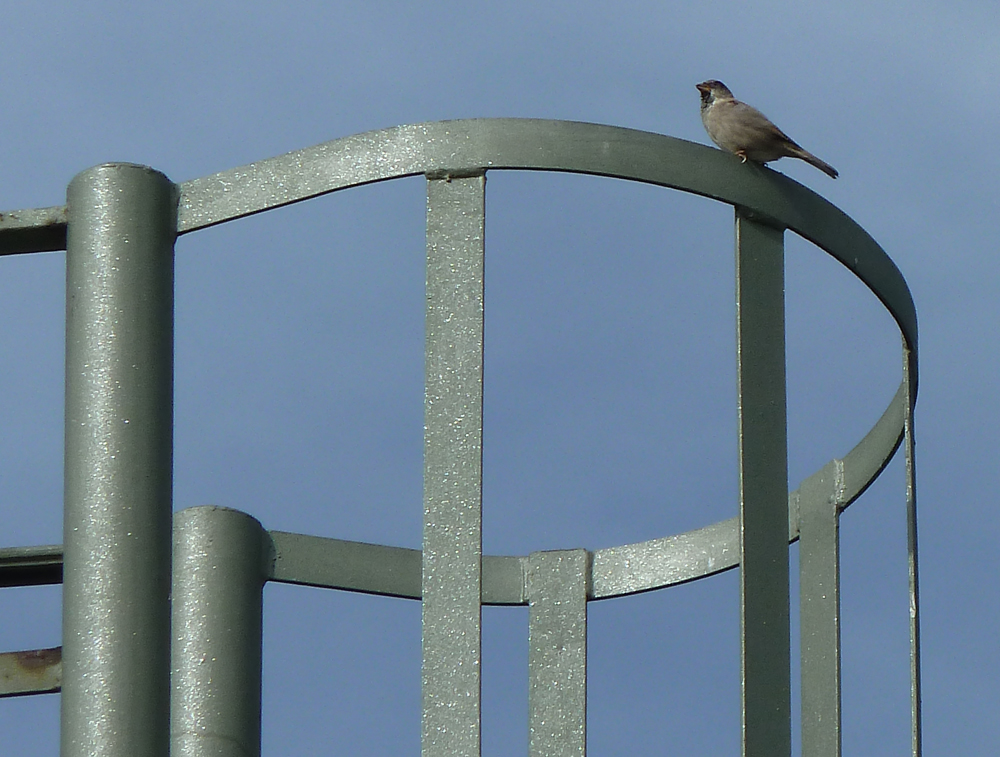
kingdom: Animalia
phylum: Chordata
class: Aves
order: Passeriformes
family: Passeridae
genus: Passer
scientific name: Passer domesticus
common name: House sparrow
